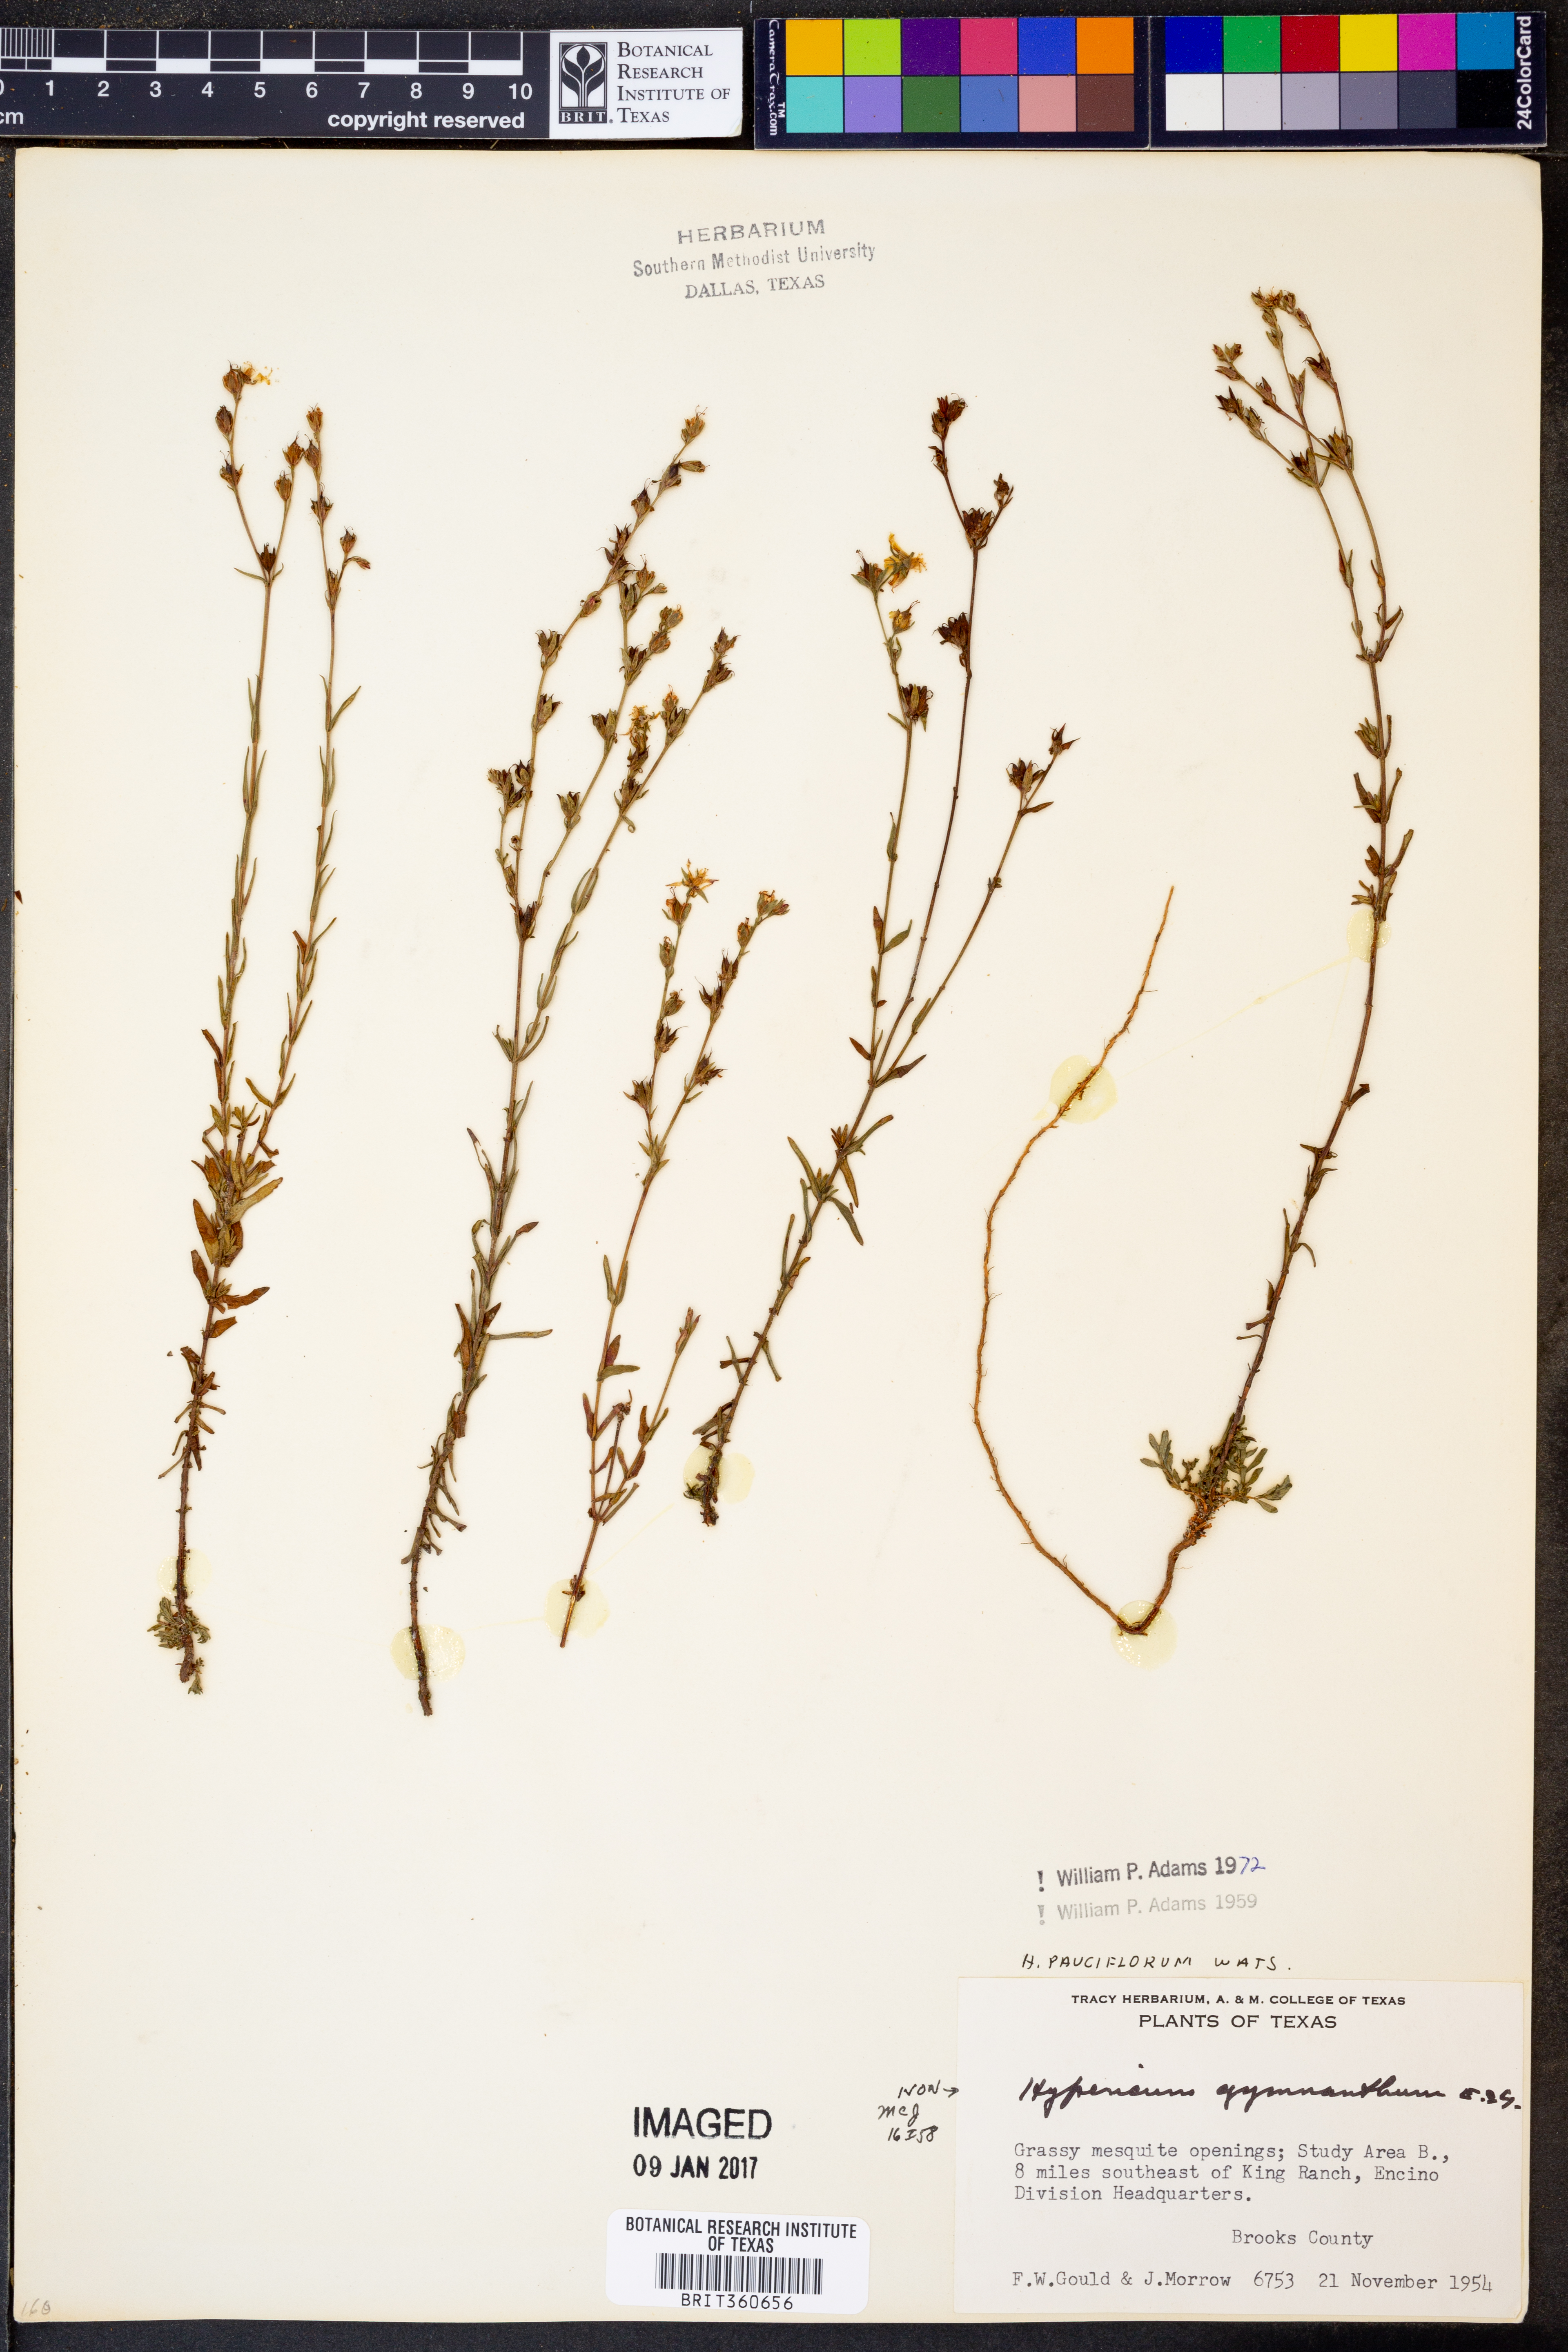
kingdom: Plantae
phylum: Tracheophyta
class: Magnoliopsida
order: Malpighiales
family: Hypericaceae
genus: Hypericum
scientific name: Hypericum pauciflorum
